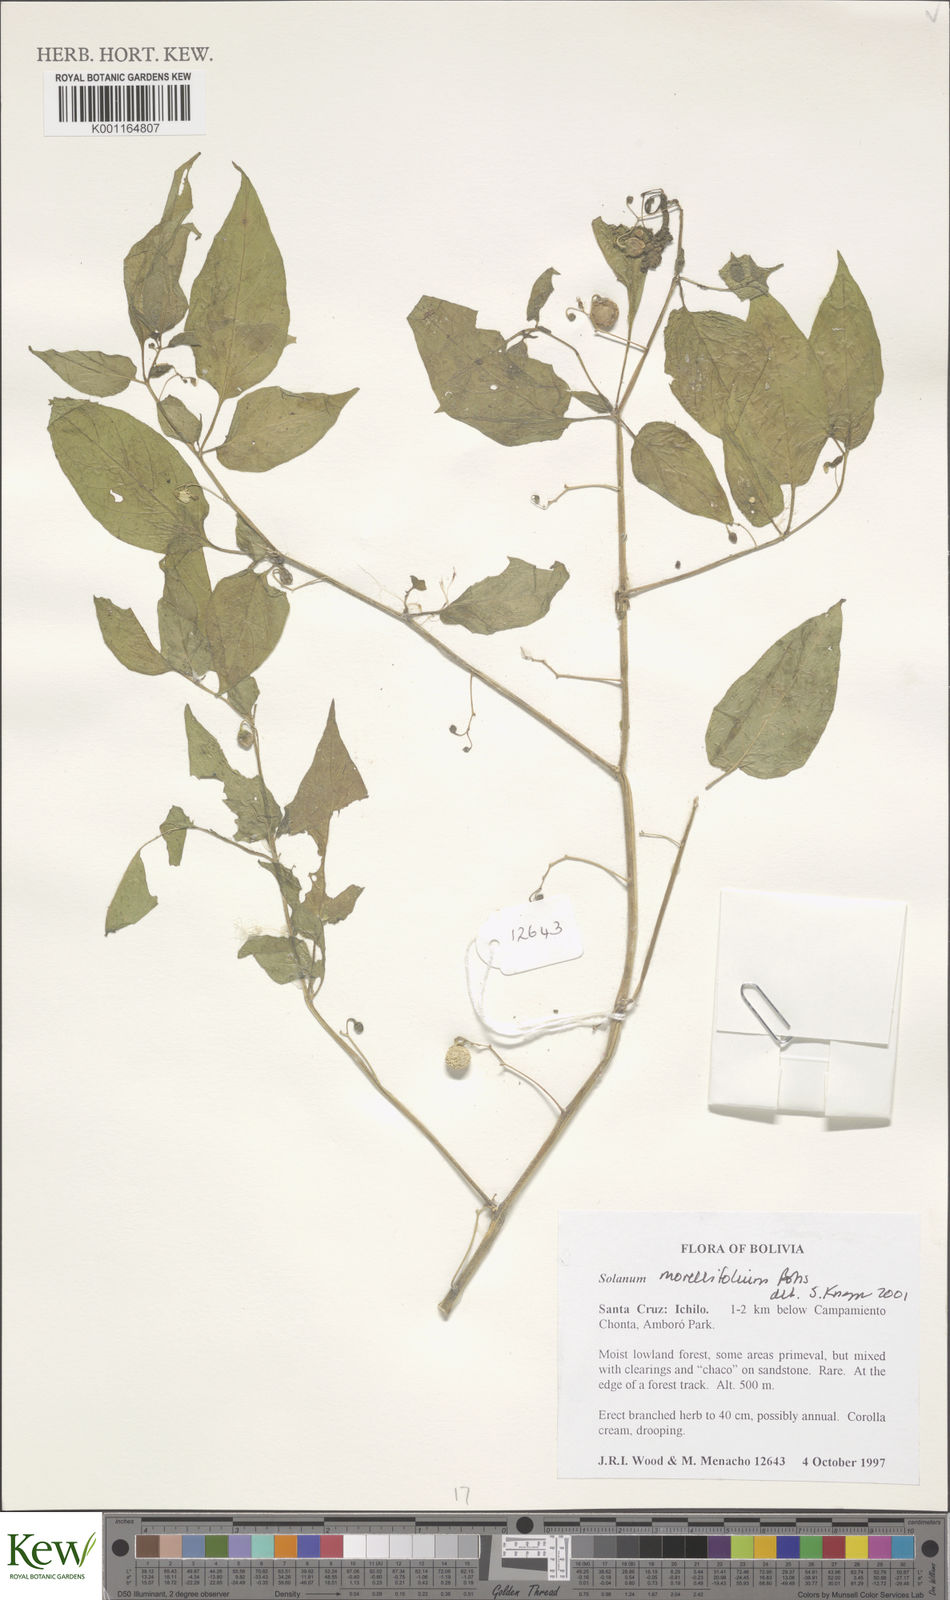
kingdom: Plantae
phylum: Tracheophyta
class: Magnoliopsida
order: Solanales
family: Solanaceae
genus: Solanum
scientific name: Solanum morellifolium
